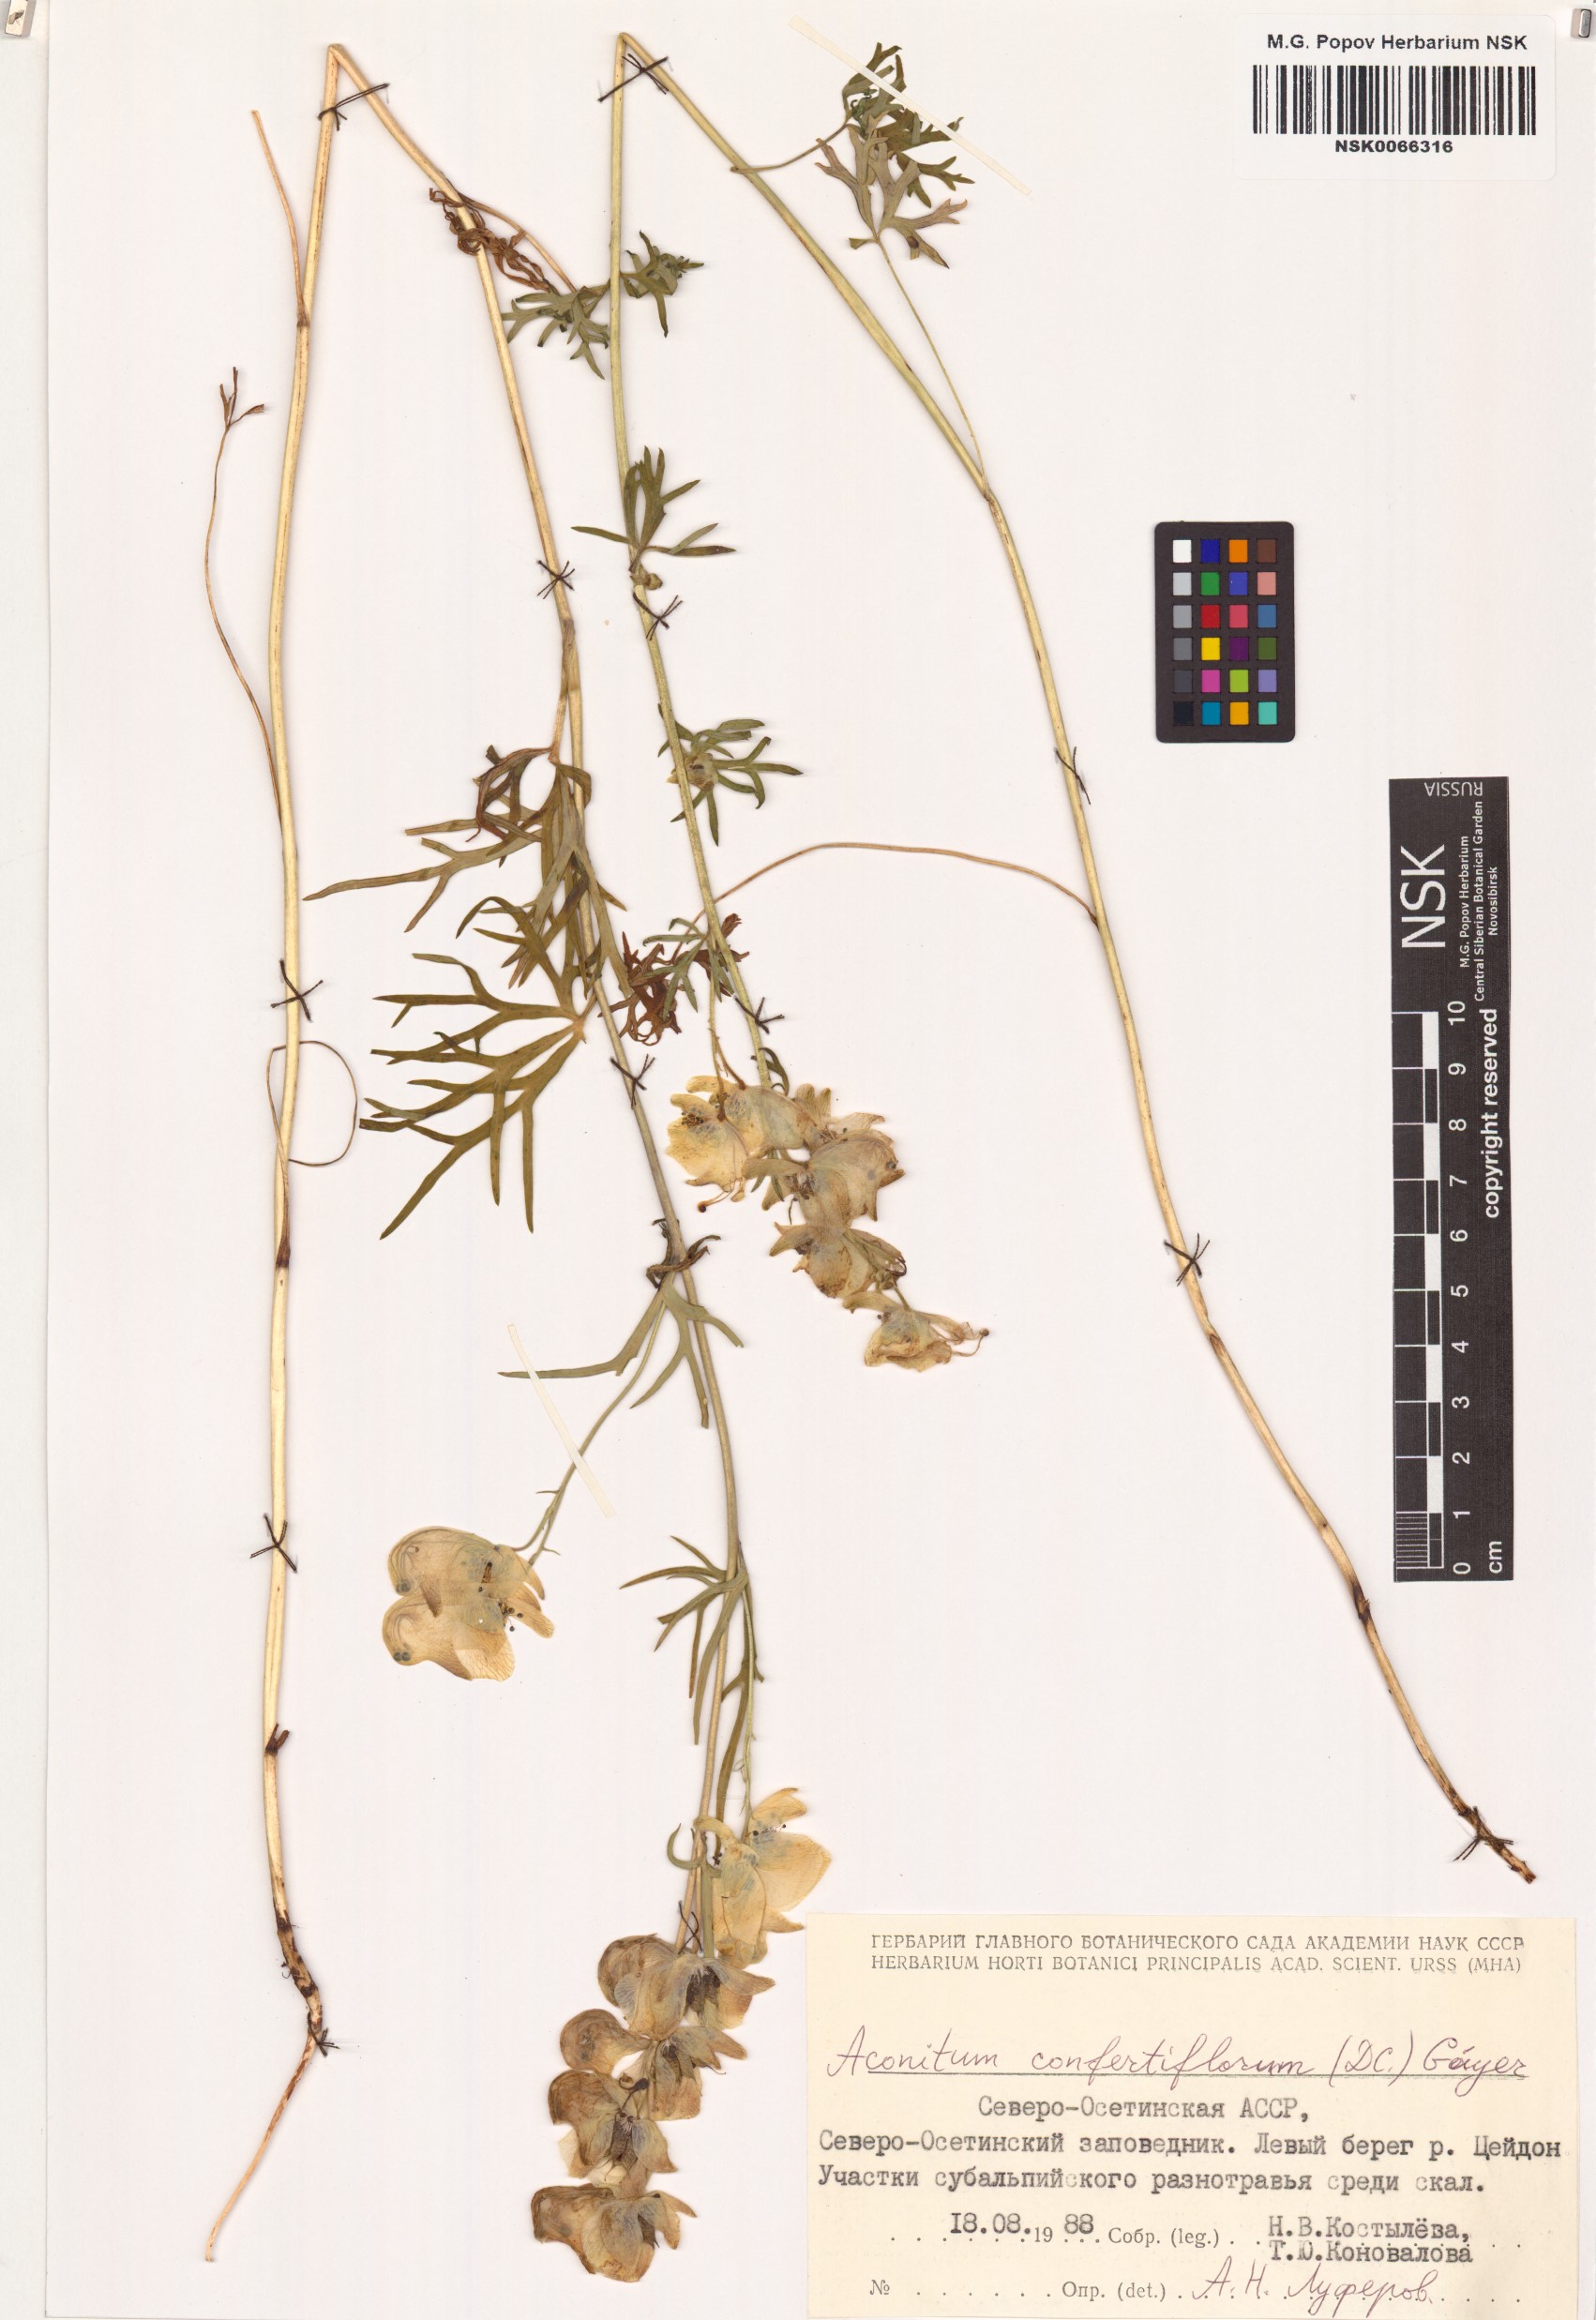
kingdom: Plantae
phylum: Tracheophyta
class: Magnoliopsida
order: Ranunculales
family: Ranunculaceae
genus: Aconitum
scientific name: Aconitum confertiflorum
